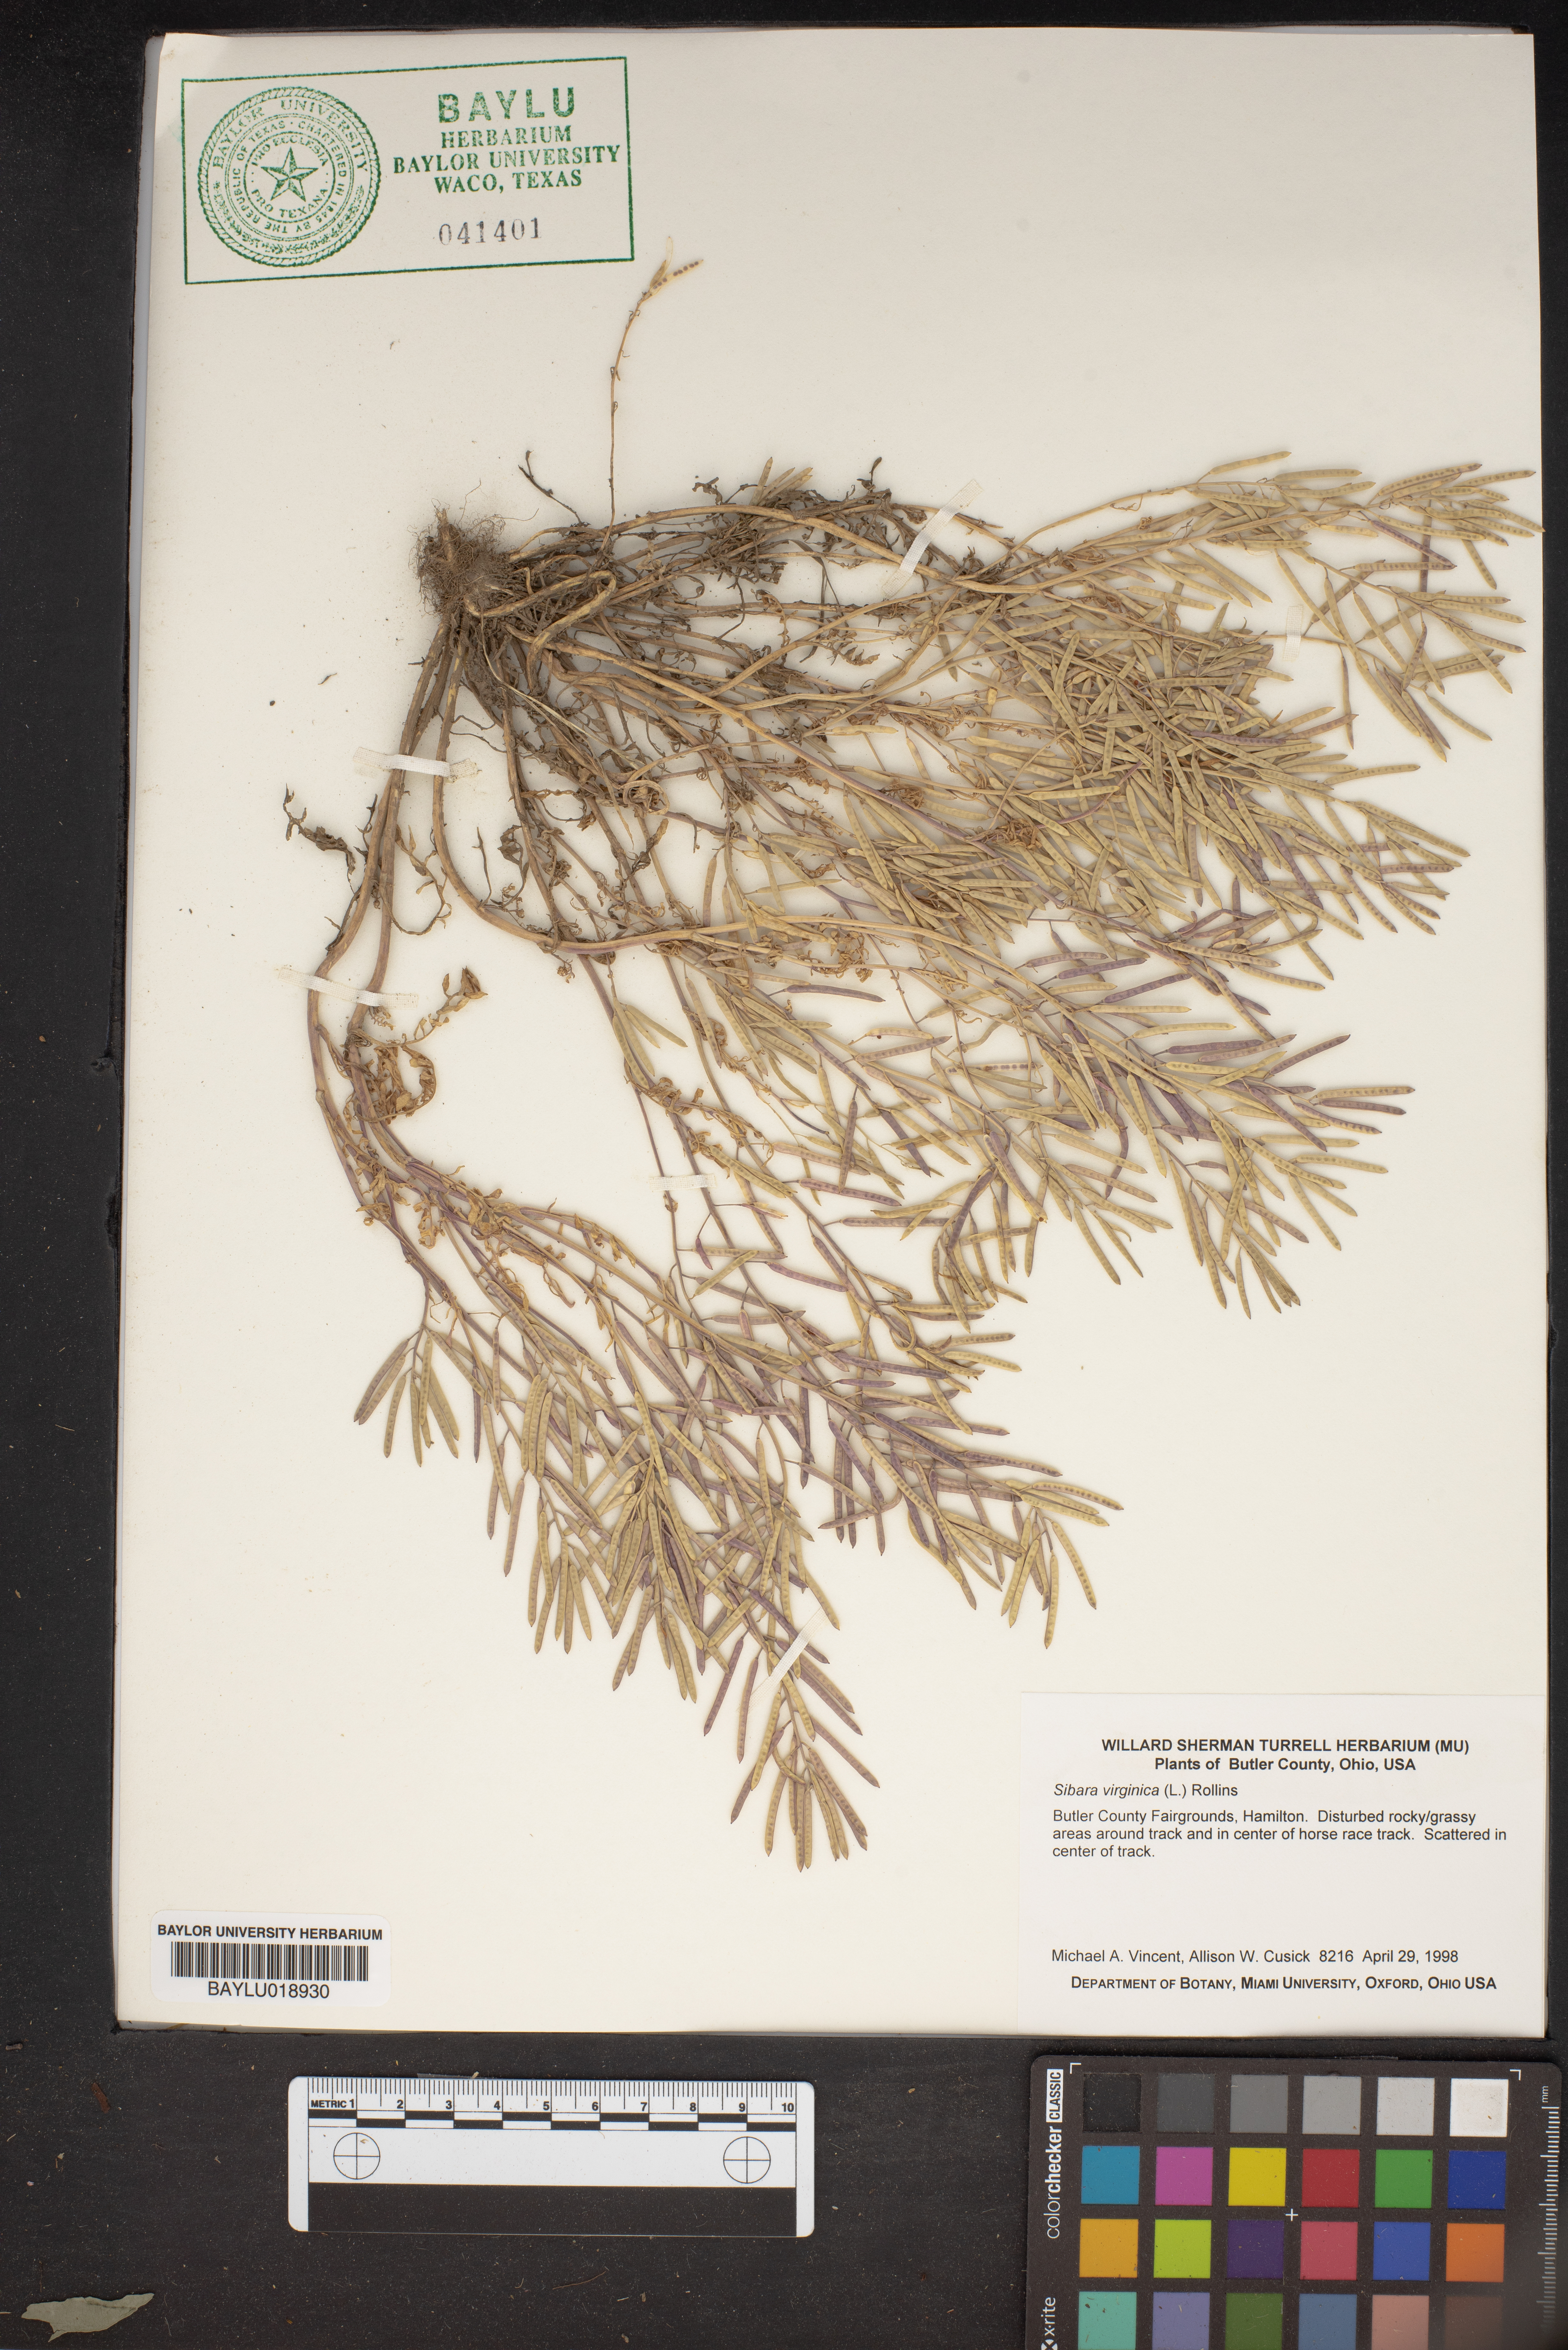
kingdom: Plantae
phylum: Tracheophyta
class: Magnoliopsida
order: Brassicales
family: Brassicaceae
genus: Planodes
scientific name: Planodes virginicum
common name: Virginia cress
